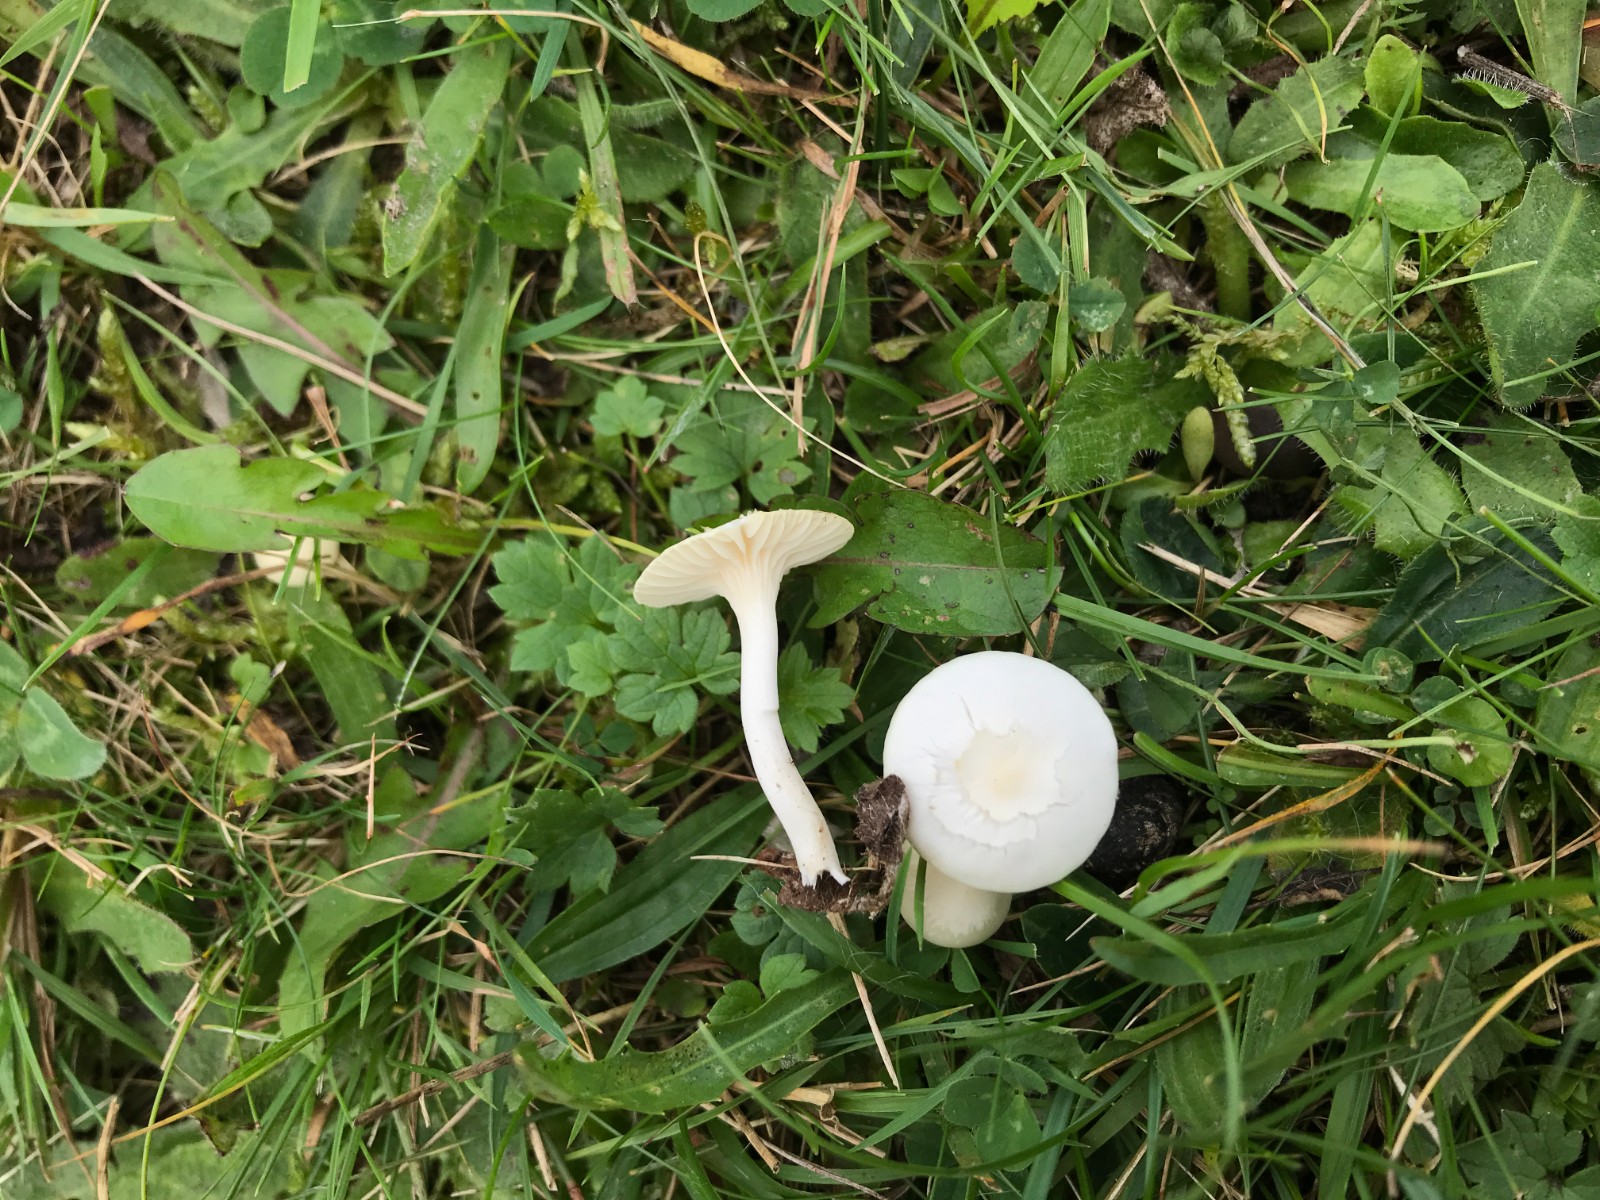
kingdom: Fungi
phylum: Basidiomycota
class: Agaricomycetes
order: Agaricales
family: Hygrophoraceae
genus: Cuphophyllus
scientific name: Cuphophyllus virgineus
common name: snehvid vokshat
